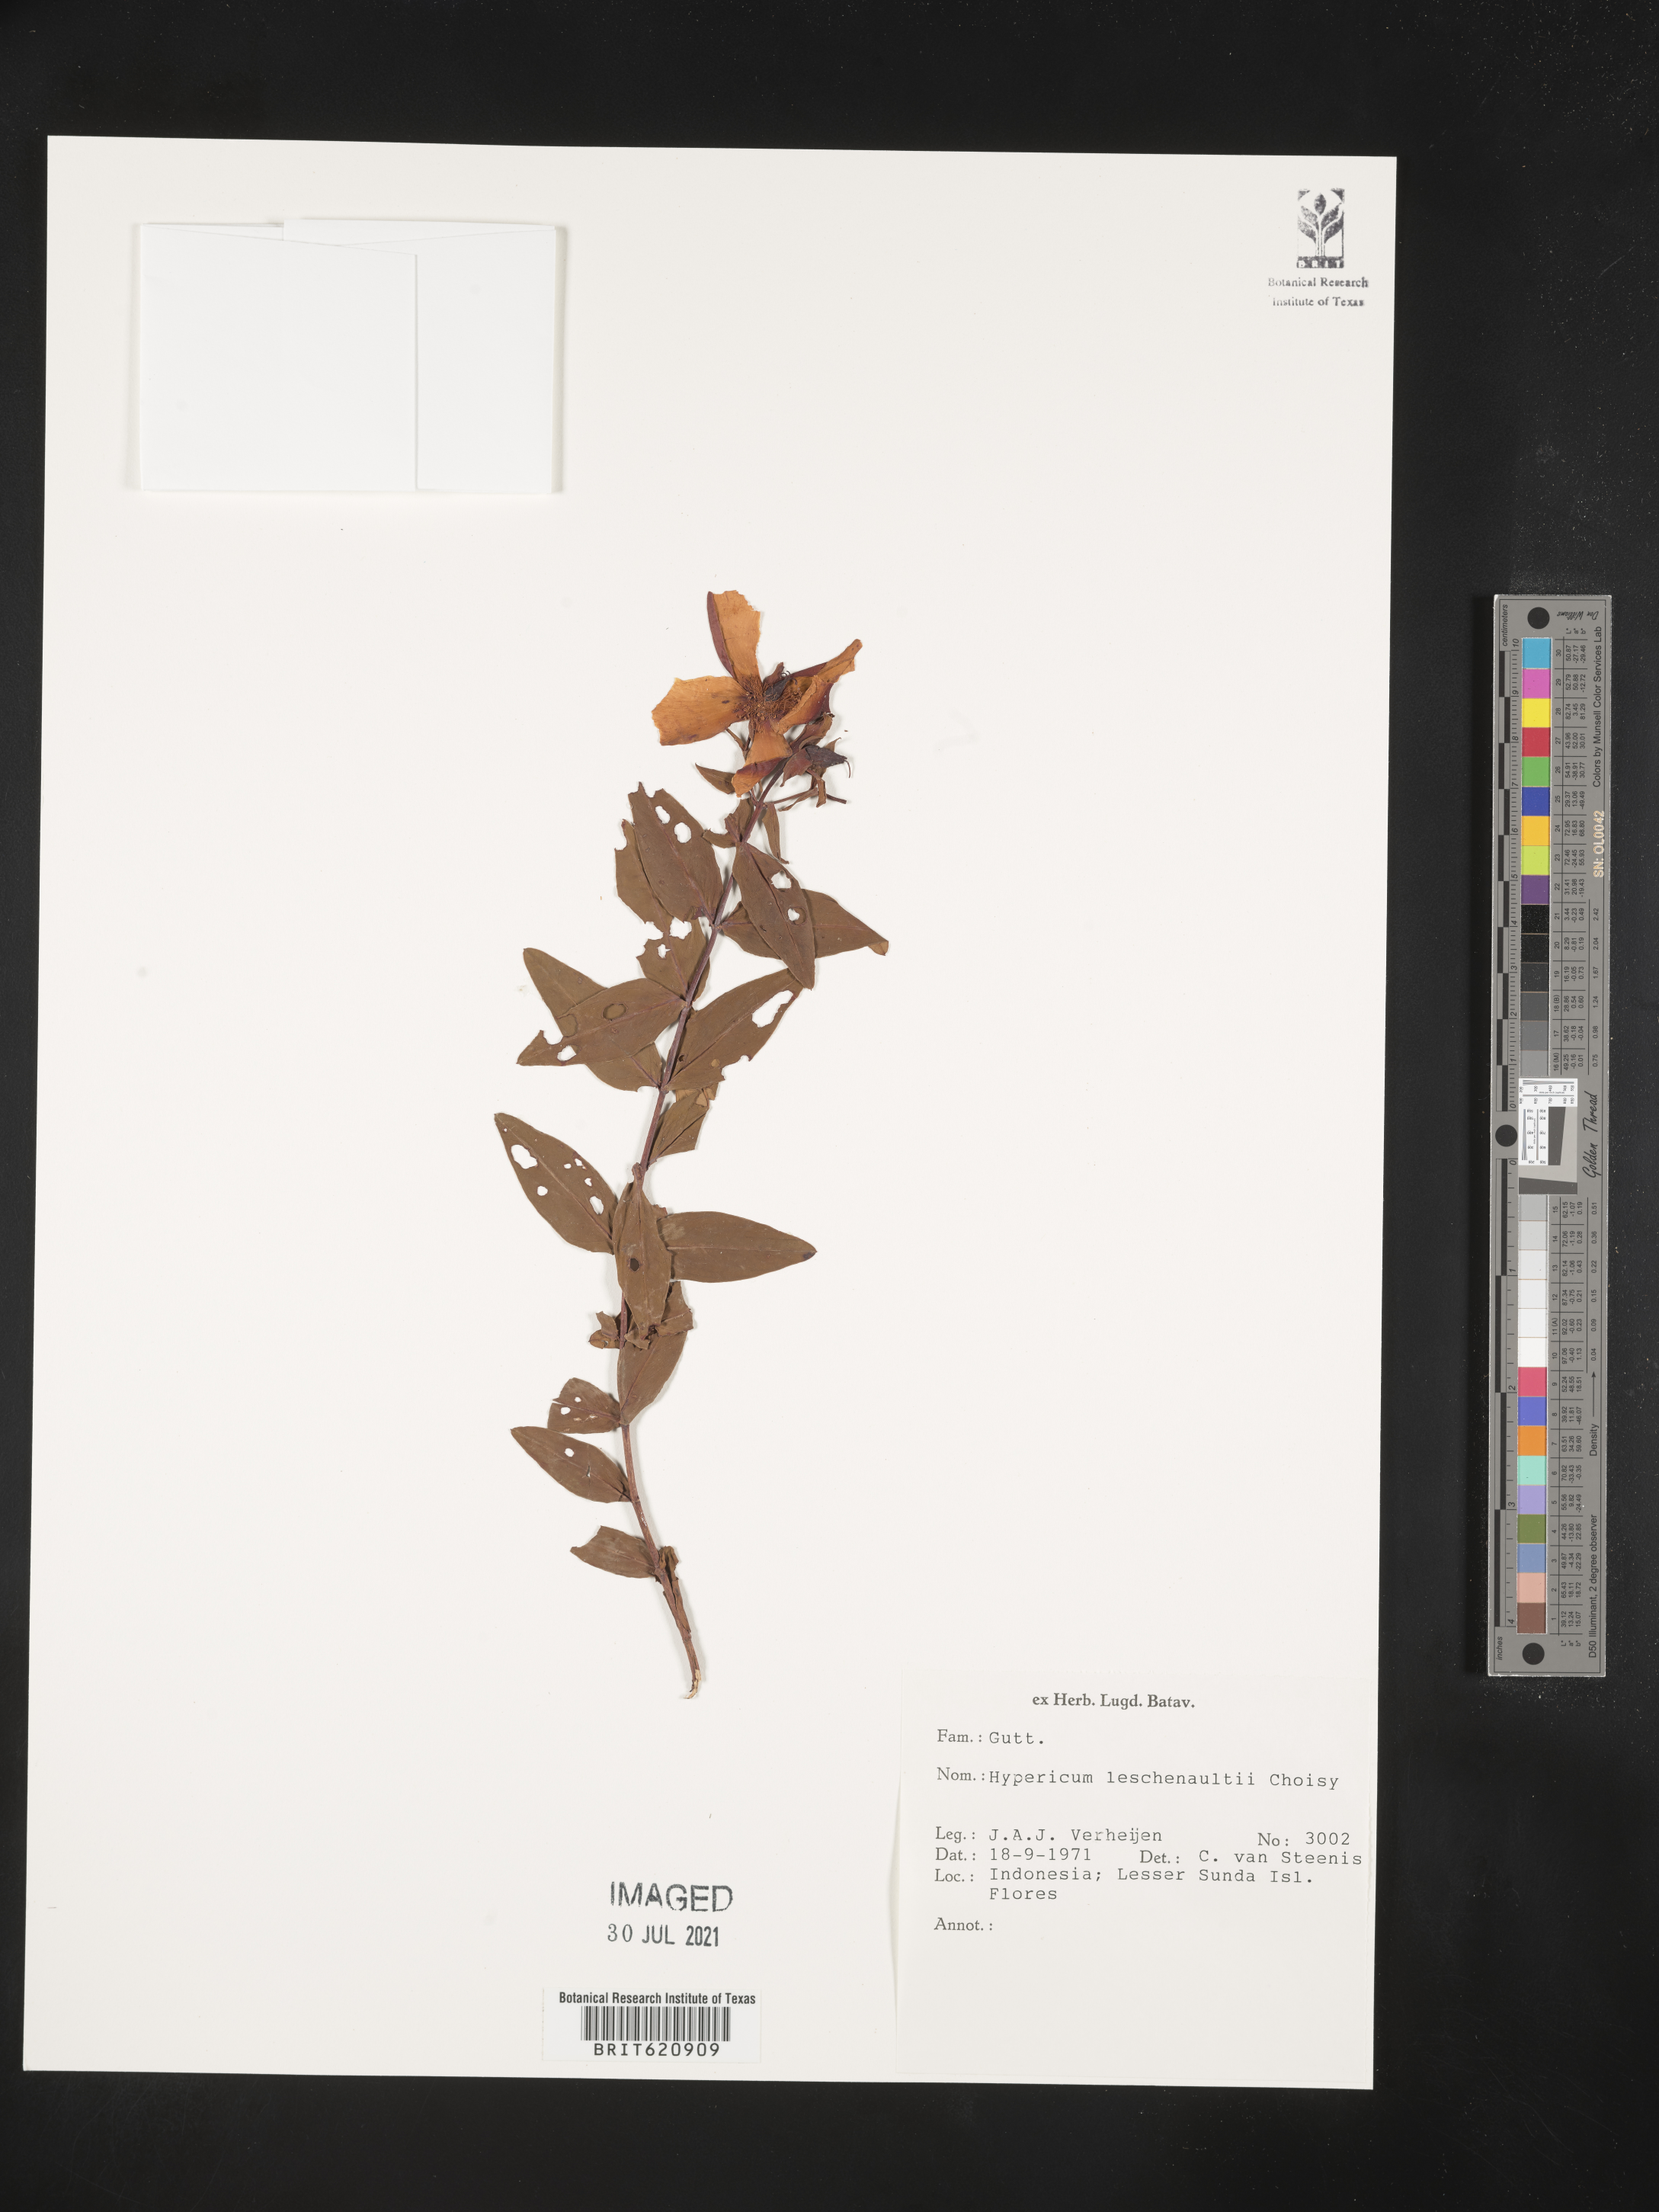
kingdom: Plantae
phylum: Tracheophyta
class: Magnoliopsida
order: Malpighiales
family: Hypericaceae
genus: Hypericum
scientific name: Hypericum leschenaultii
